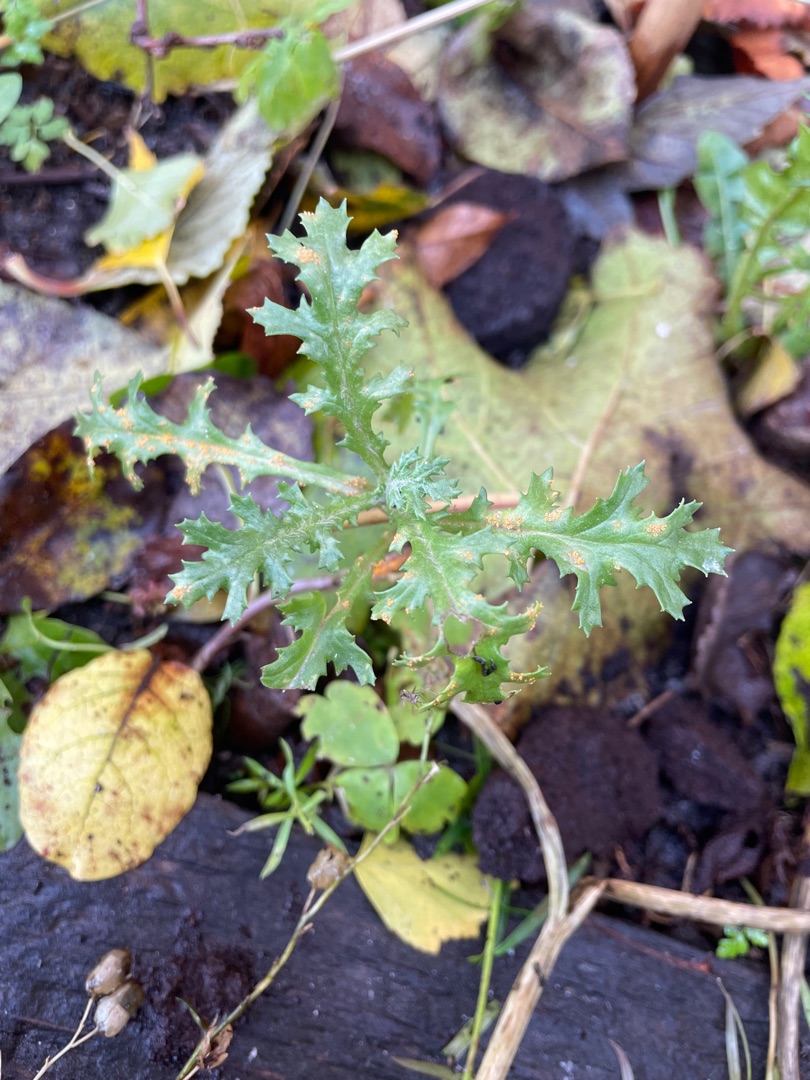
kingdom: Plantae
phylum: Tracheophyta
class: Magnoliopsida
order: Asterales
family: Asteraceae
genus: Senecio
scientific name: Senecio vulgaris
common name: Almindelig brandbæger
